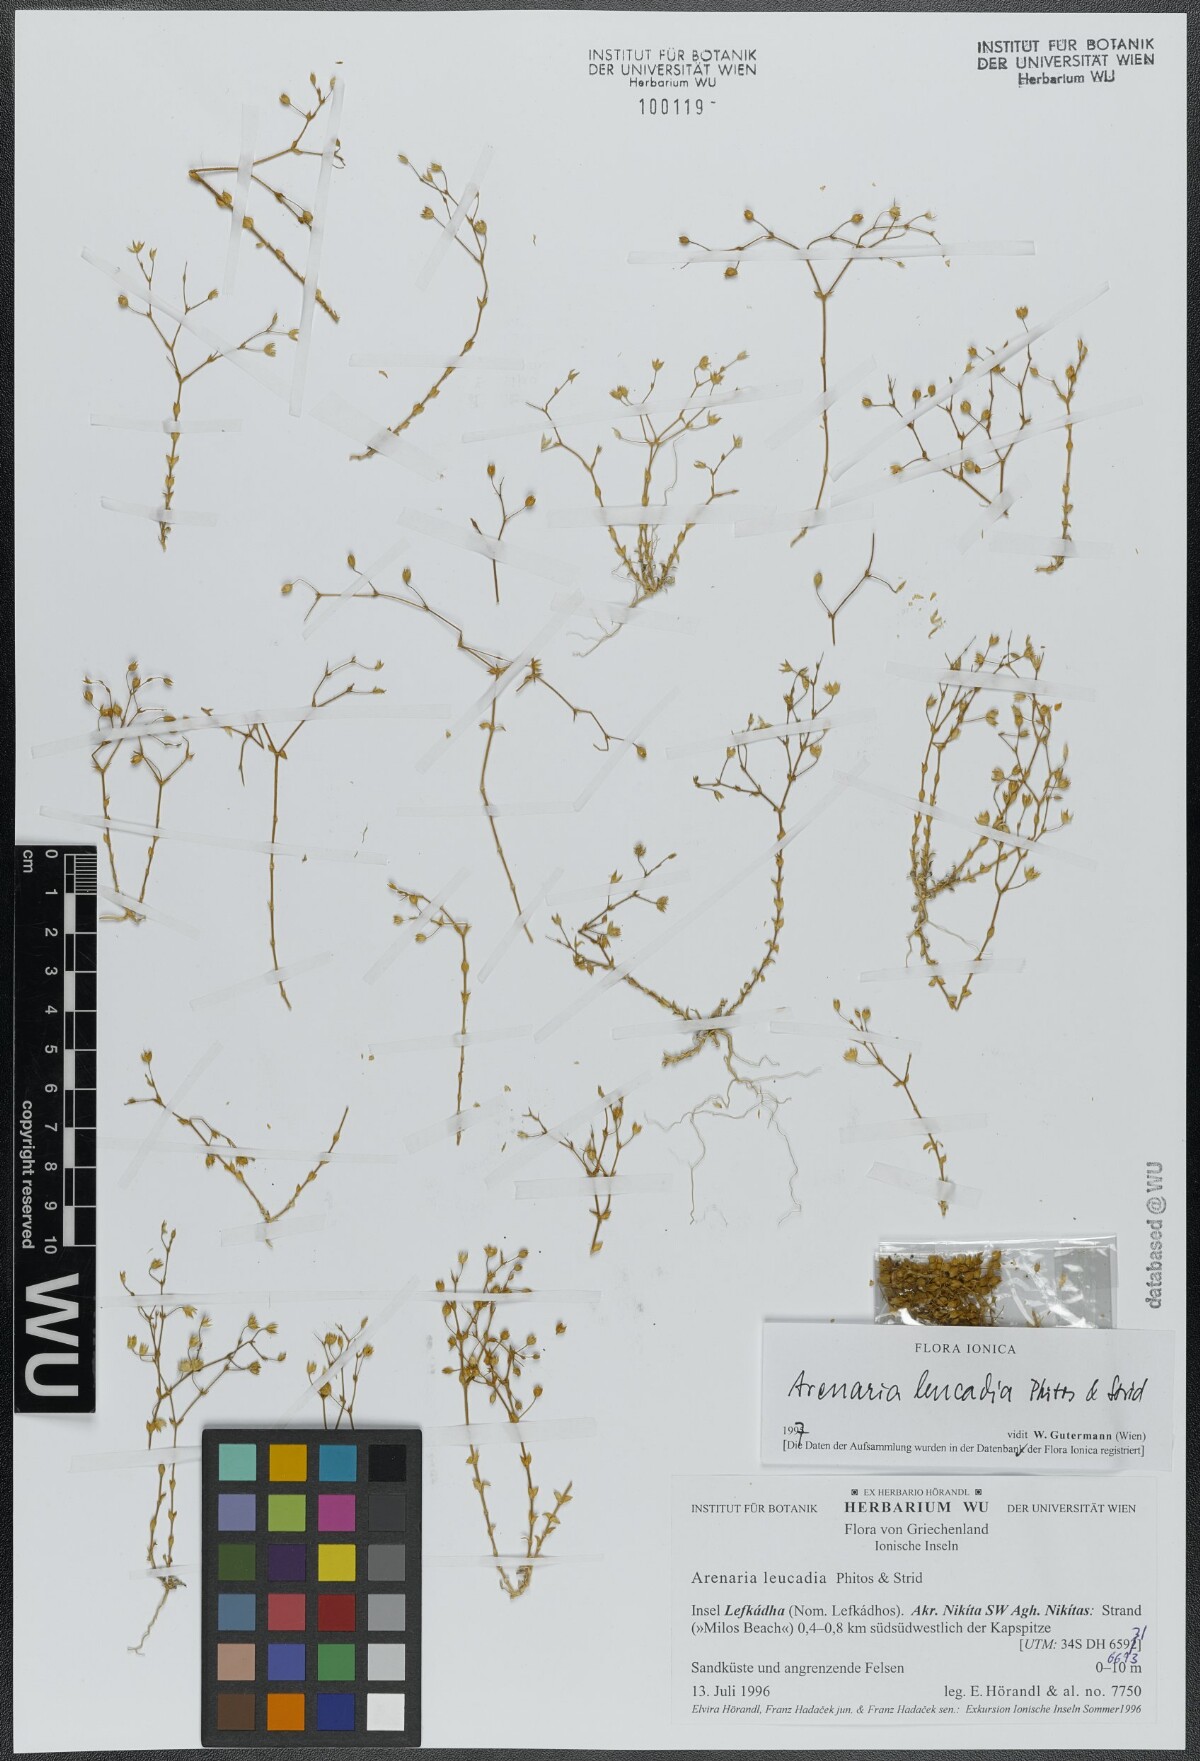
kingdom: Plantae
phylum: Tracheophyta
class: Magnoliopsida
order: Caryophyllales
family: Caryophyllaceae
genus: Arenaria
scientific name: Arenaria leucadia
